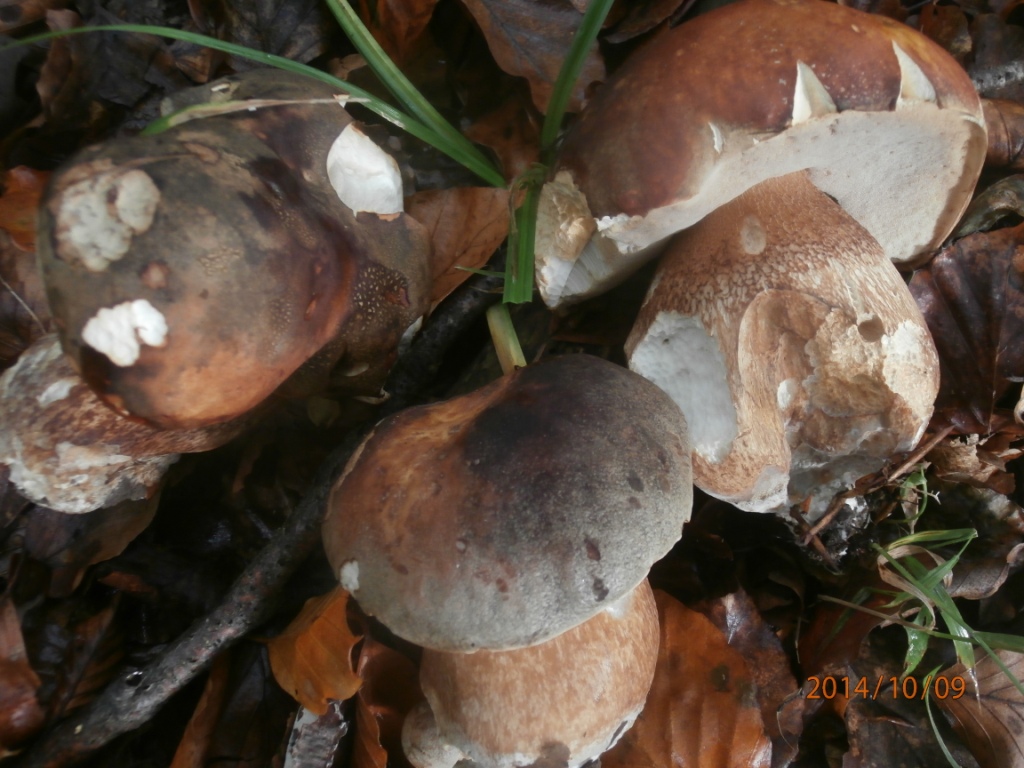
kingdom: Fungi
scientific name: Fungi
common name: bronze-rørhat
